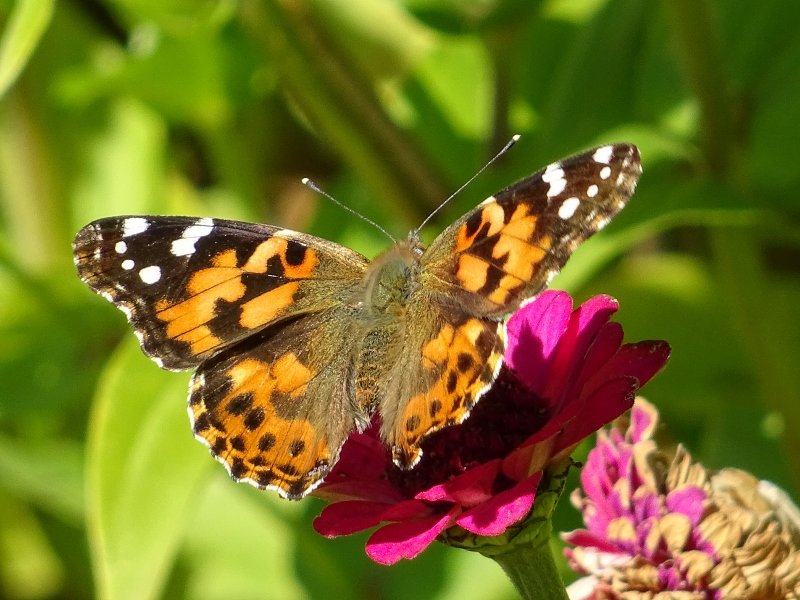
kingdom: Animalia
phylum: Arthropoda
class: Insecta
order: Lepidoptera
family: Nymphalidae
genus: Vanessa
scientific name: Vanessa cardui
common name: Painted Lady
